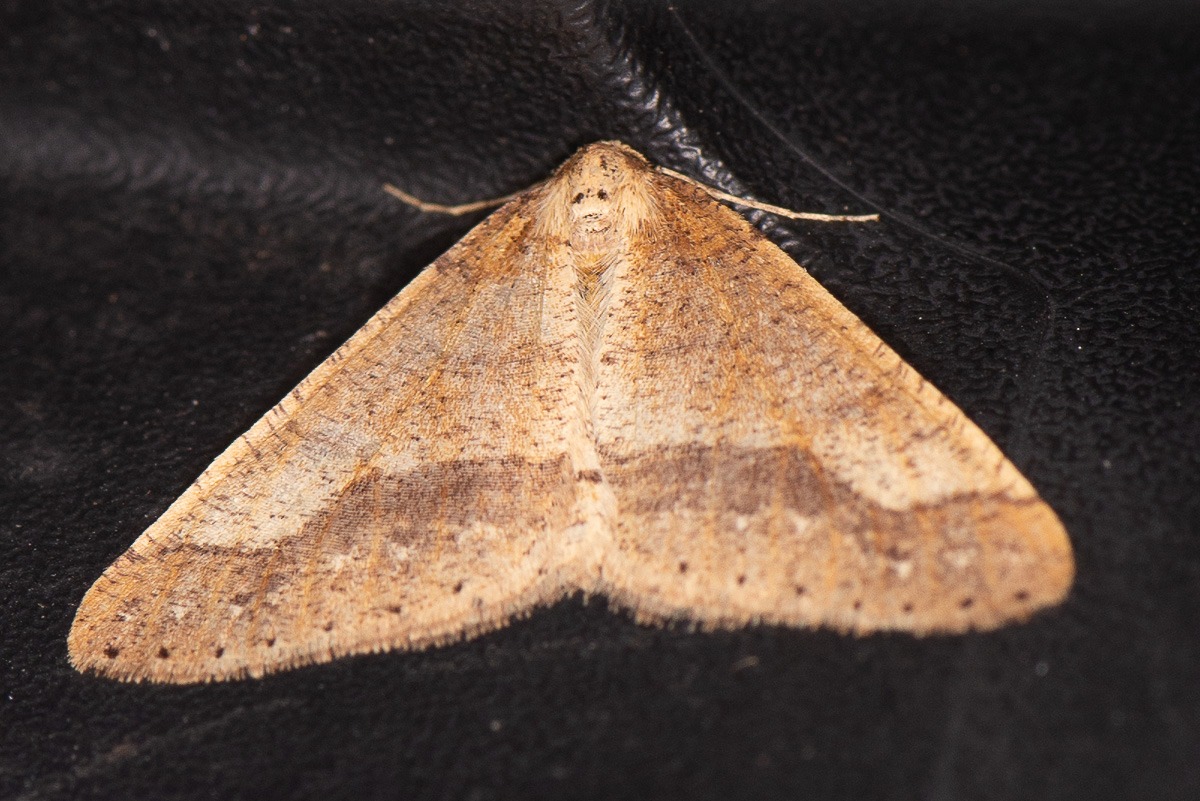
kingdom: Animalia
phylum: Arthropoda
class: Insecta
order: Lepidoptera
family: Geometridae
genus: Agriopis
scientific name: Agriopis marginaria
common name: Grågul frostmåler
